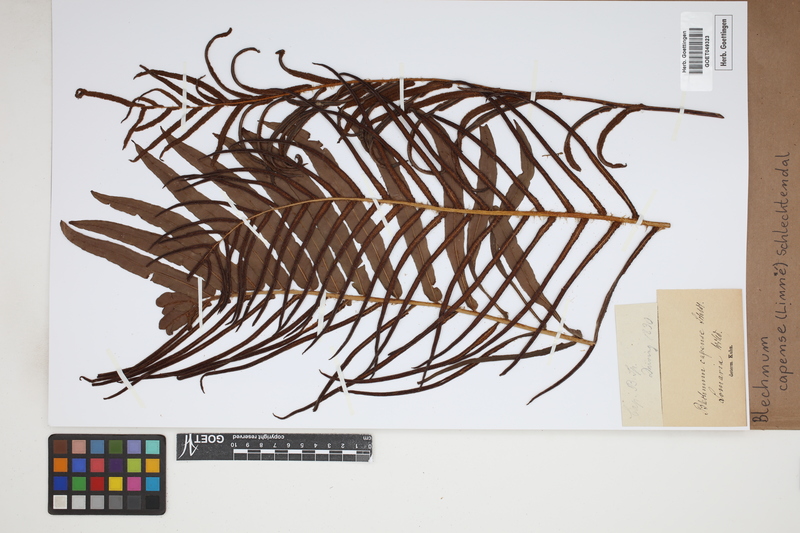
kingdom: Plantae
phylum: Tracheophyta
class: Polypodiopsida
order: Polypodiales
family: Blechnaceae
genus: Parablechnum
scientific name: Parablechnum capense
